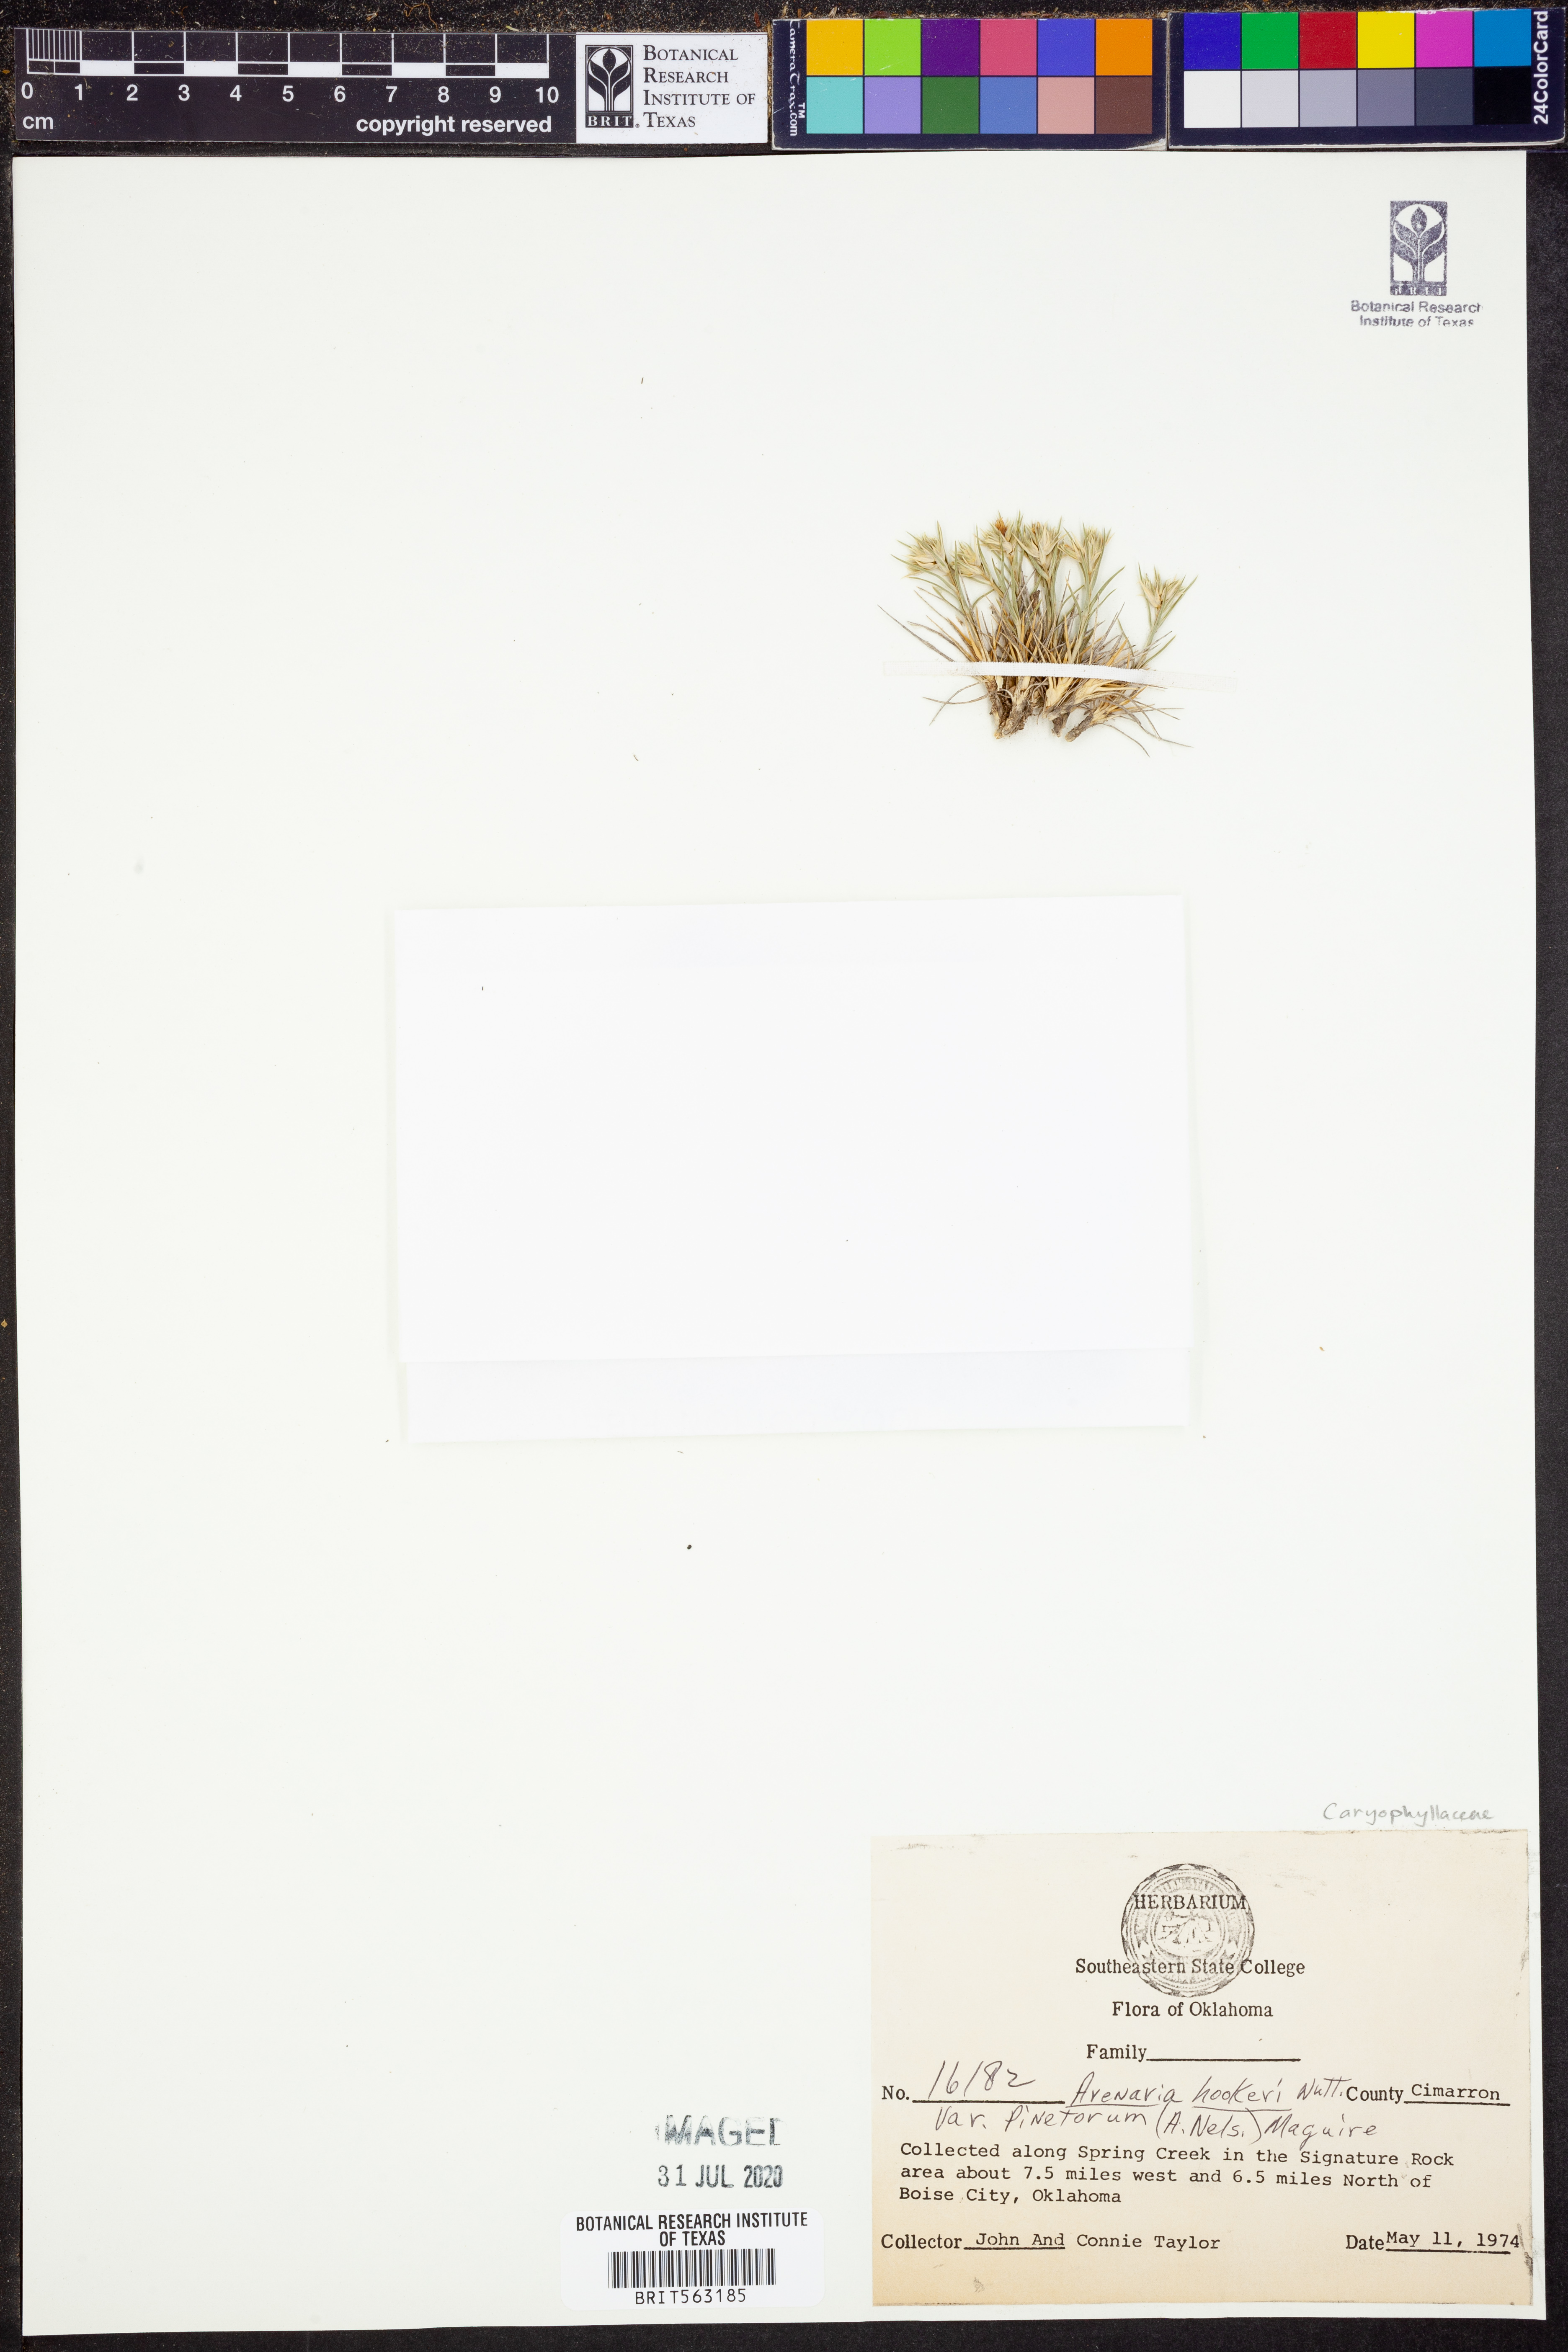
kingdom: Plantae
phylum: Tracheophyta
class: Magnoliopsida
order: Caryophyllales
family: Caryophyllaceae
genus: Eremogone
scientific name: Eremogone hookeri
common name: Hooker's sandwort
